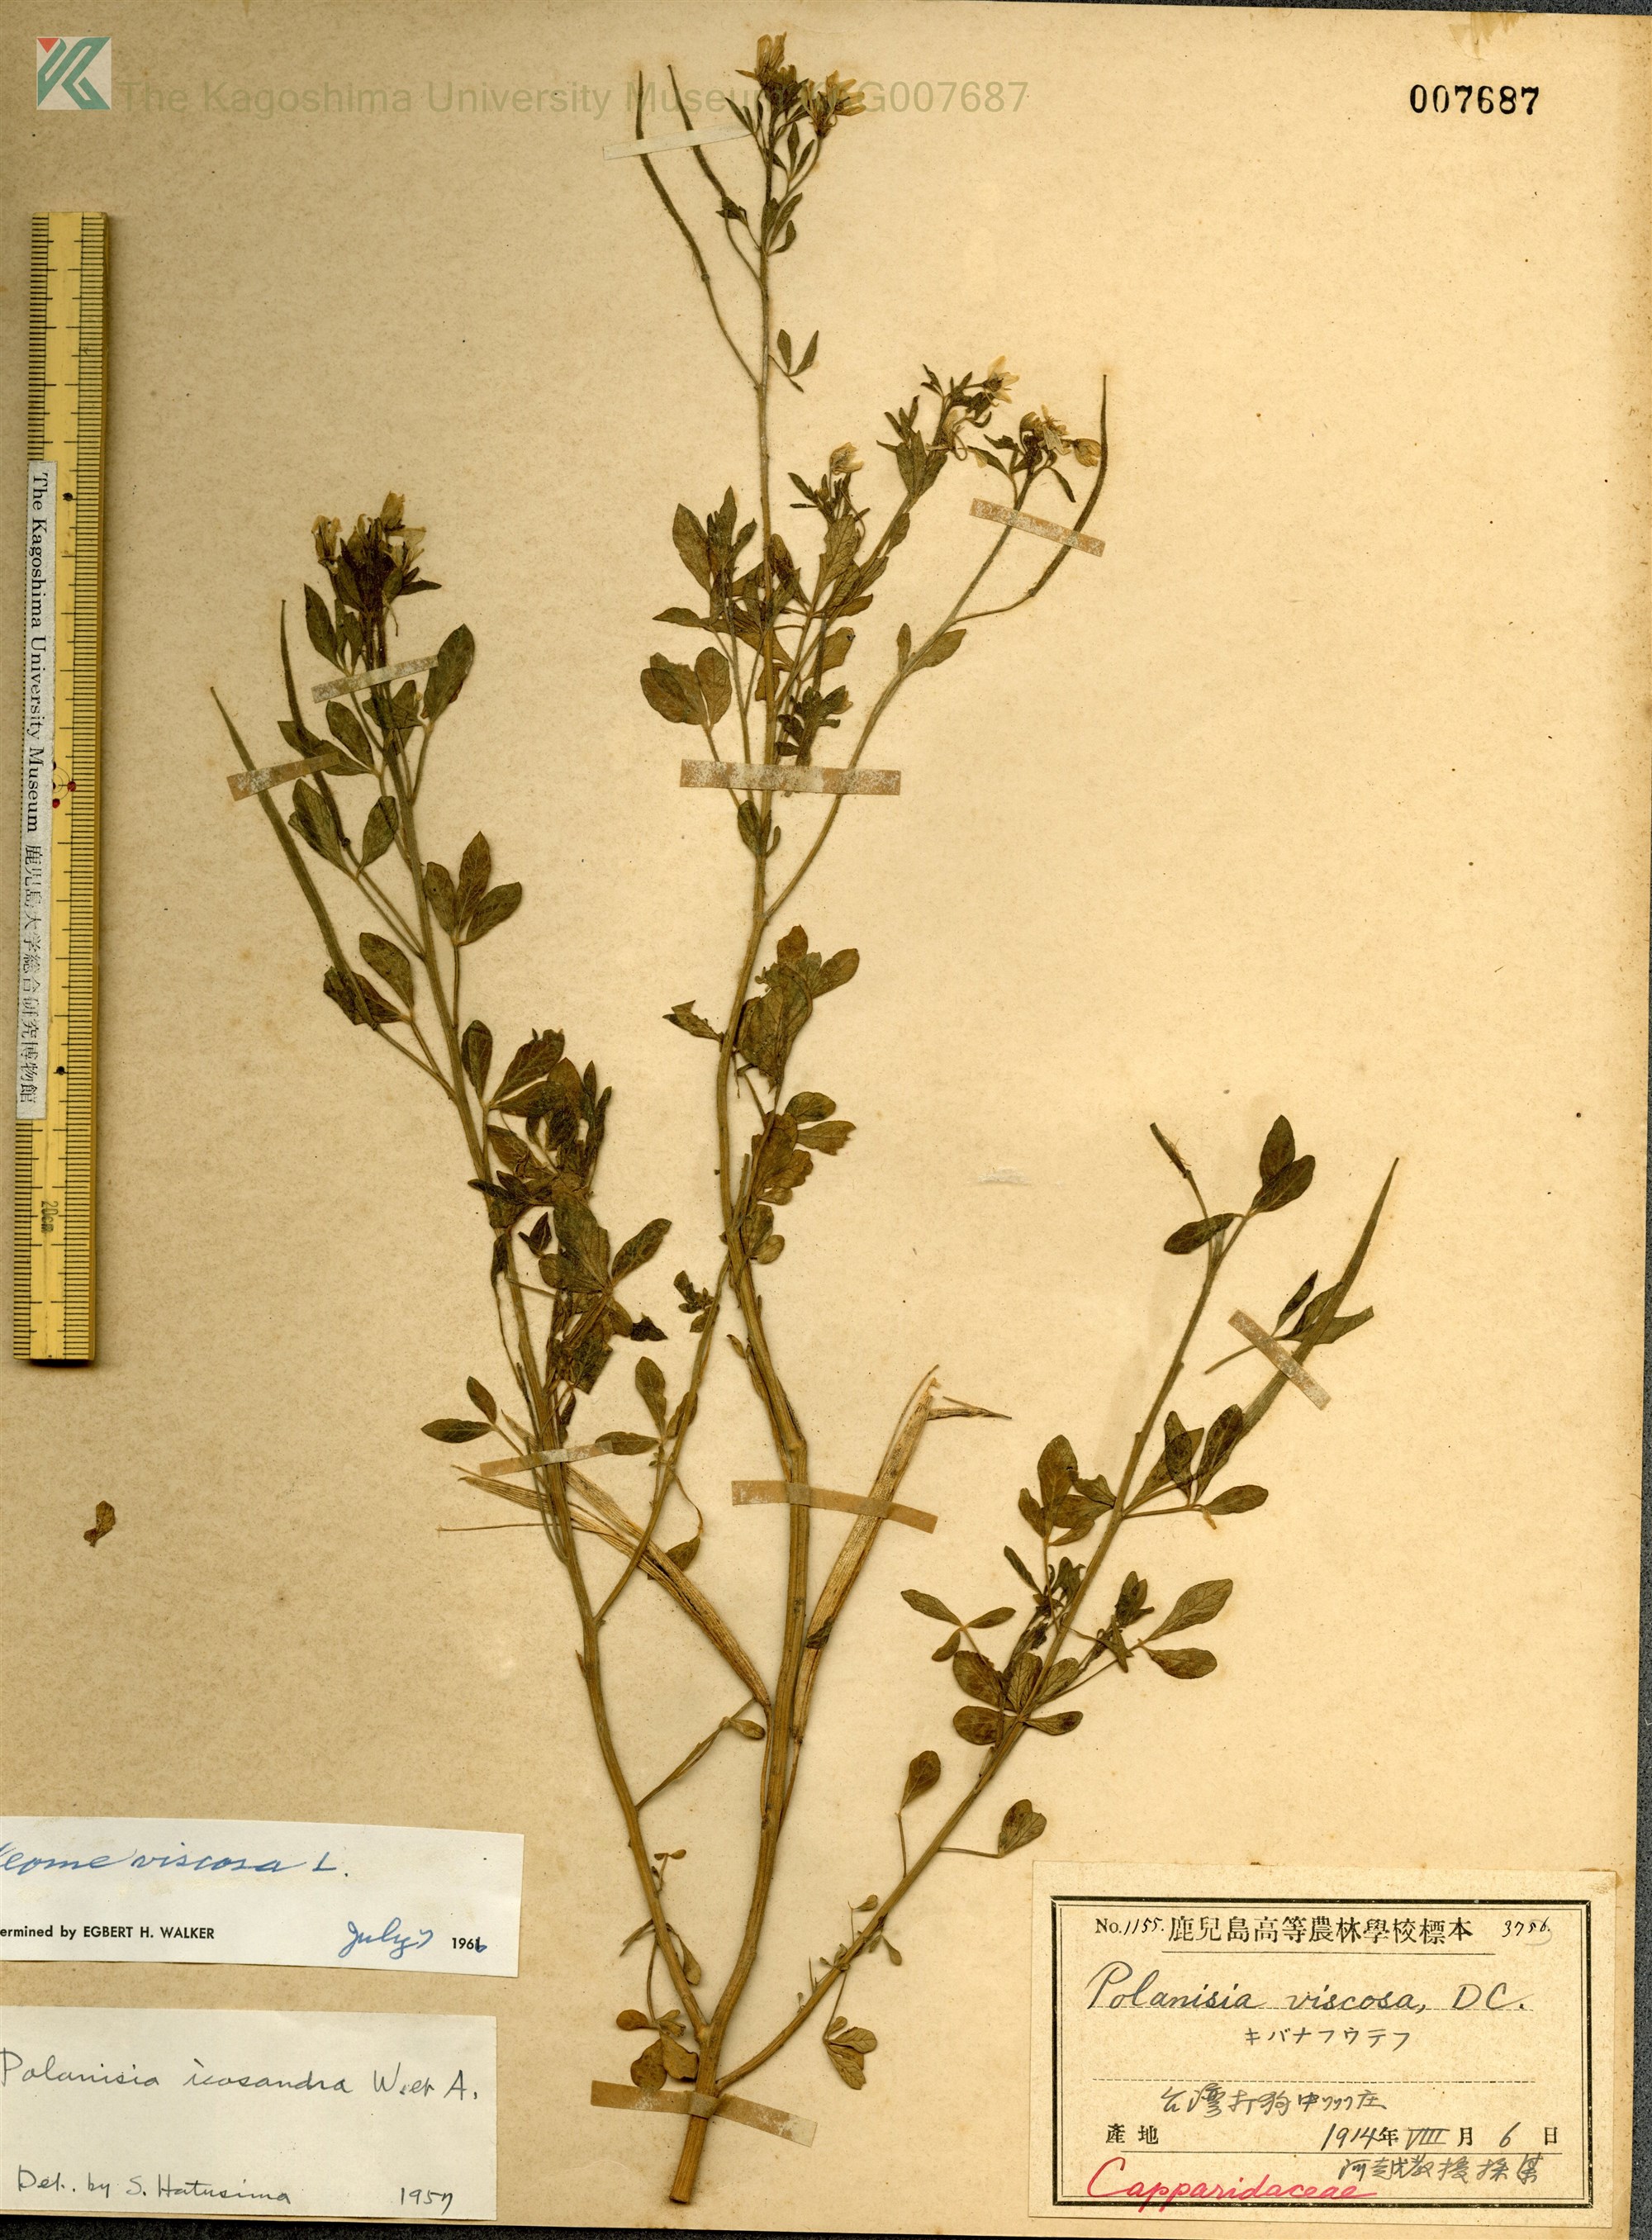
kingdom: Plantae
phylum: Tracheophyta
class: Magnoliopsida
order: Brassicales
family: Cleomaceae
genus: Arivela
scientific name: Arivela viscosa
